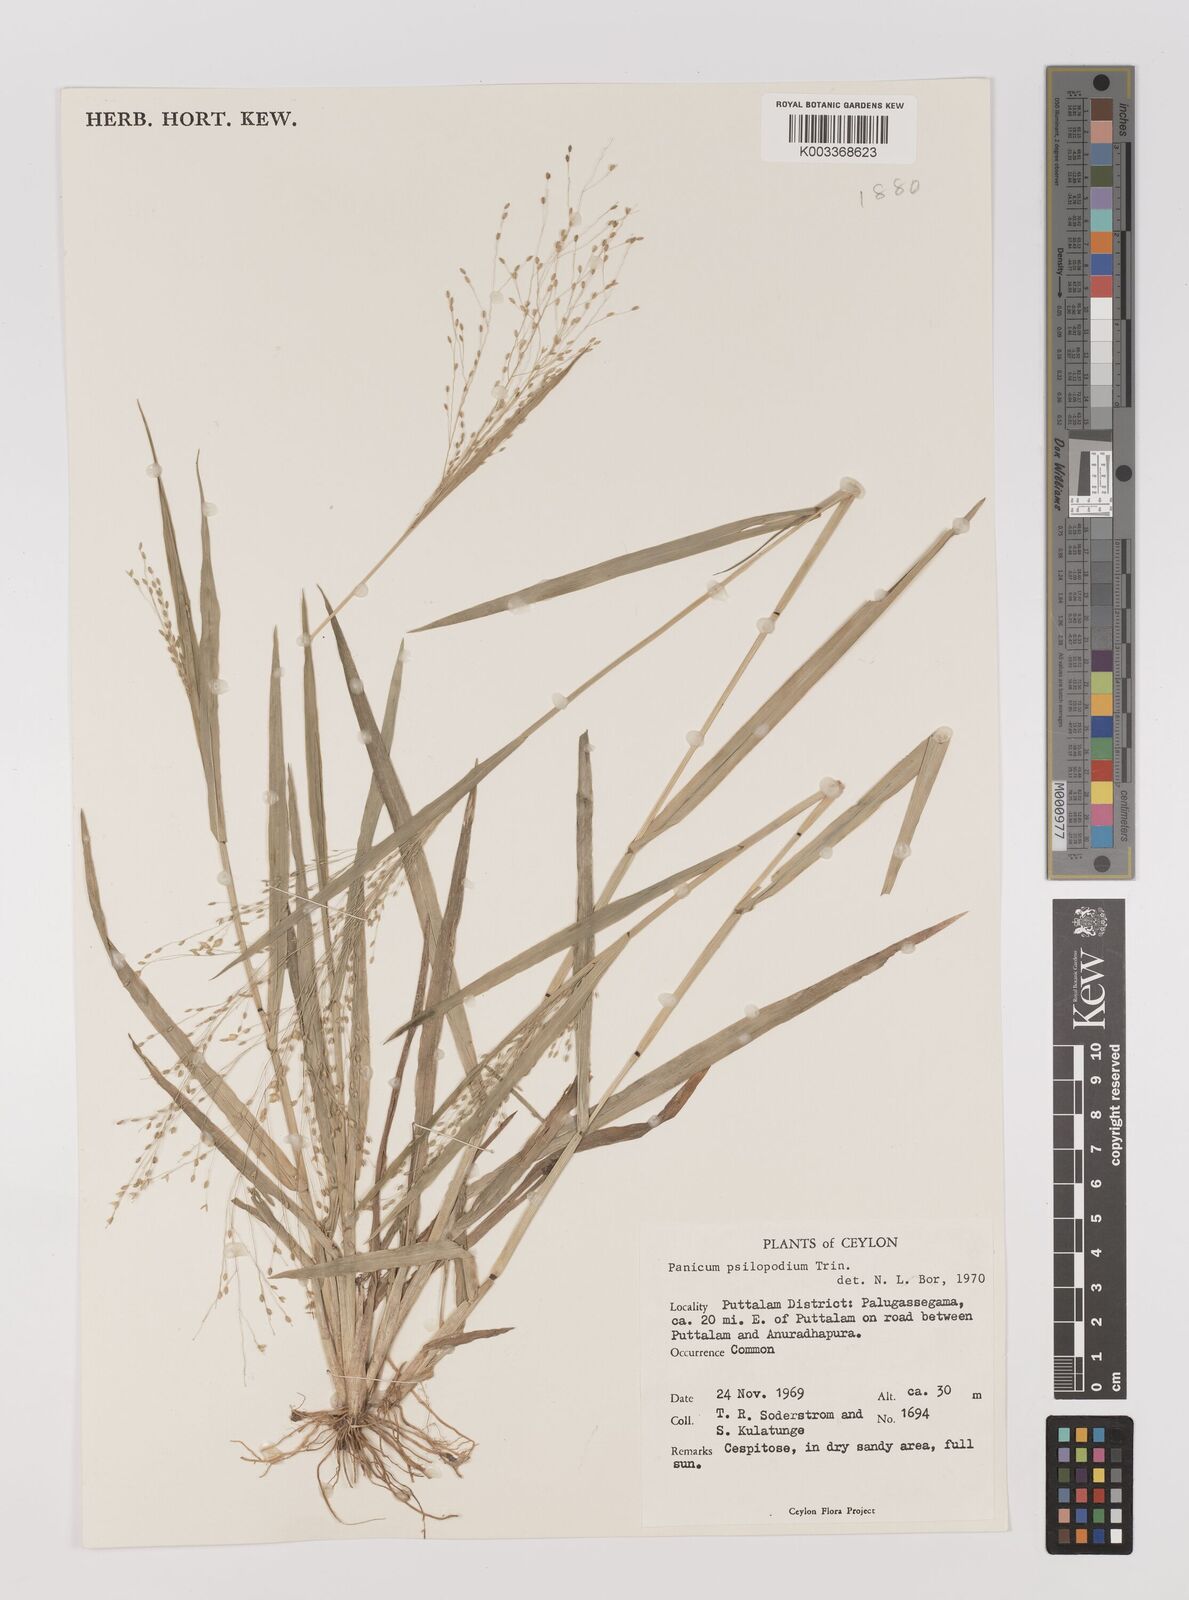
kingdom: Plantae
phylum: Tracheophyta
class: Liliopsida
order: Poales
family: Poaceae
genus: Panicum
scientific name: Panicum sumatrense
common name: Little millet
